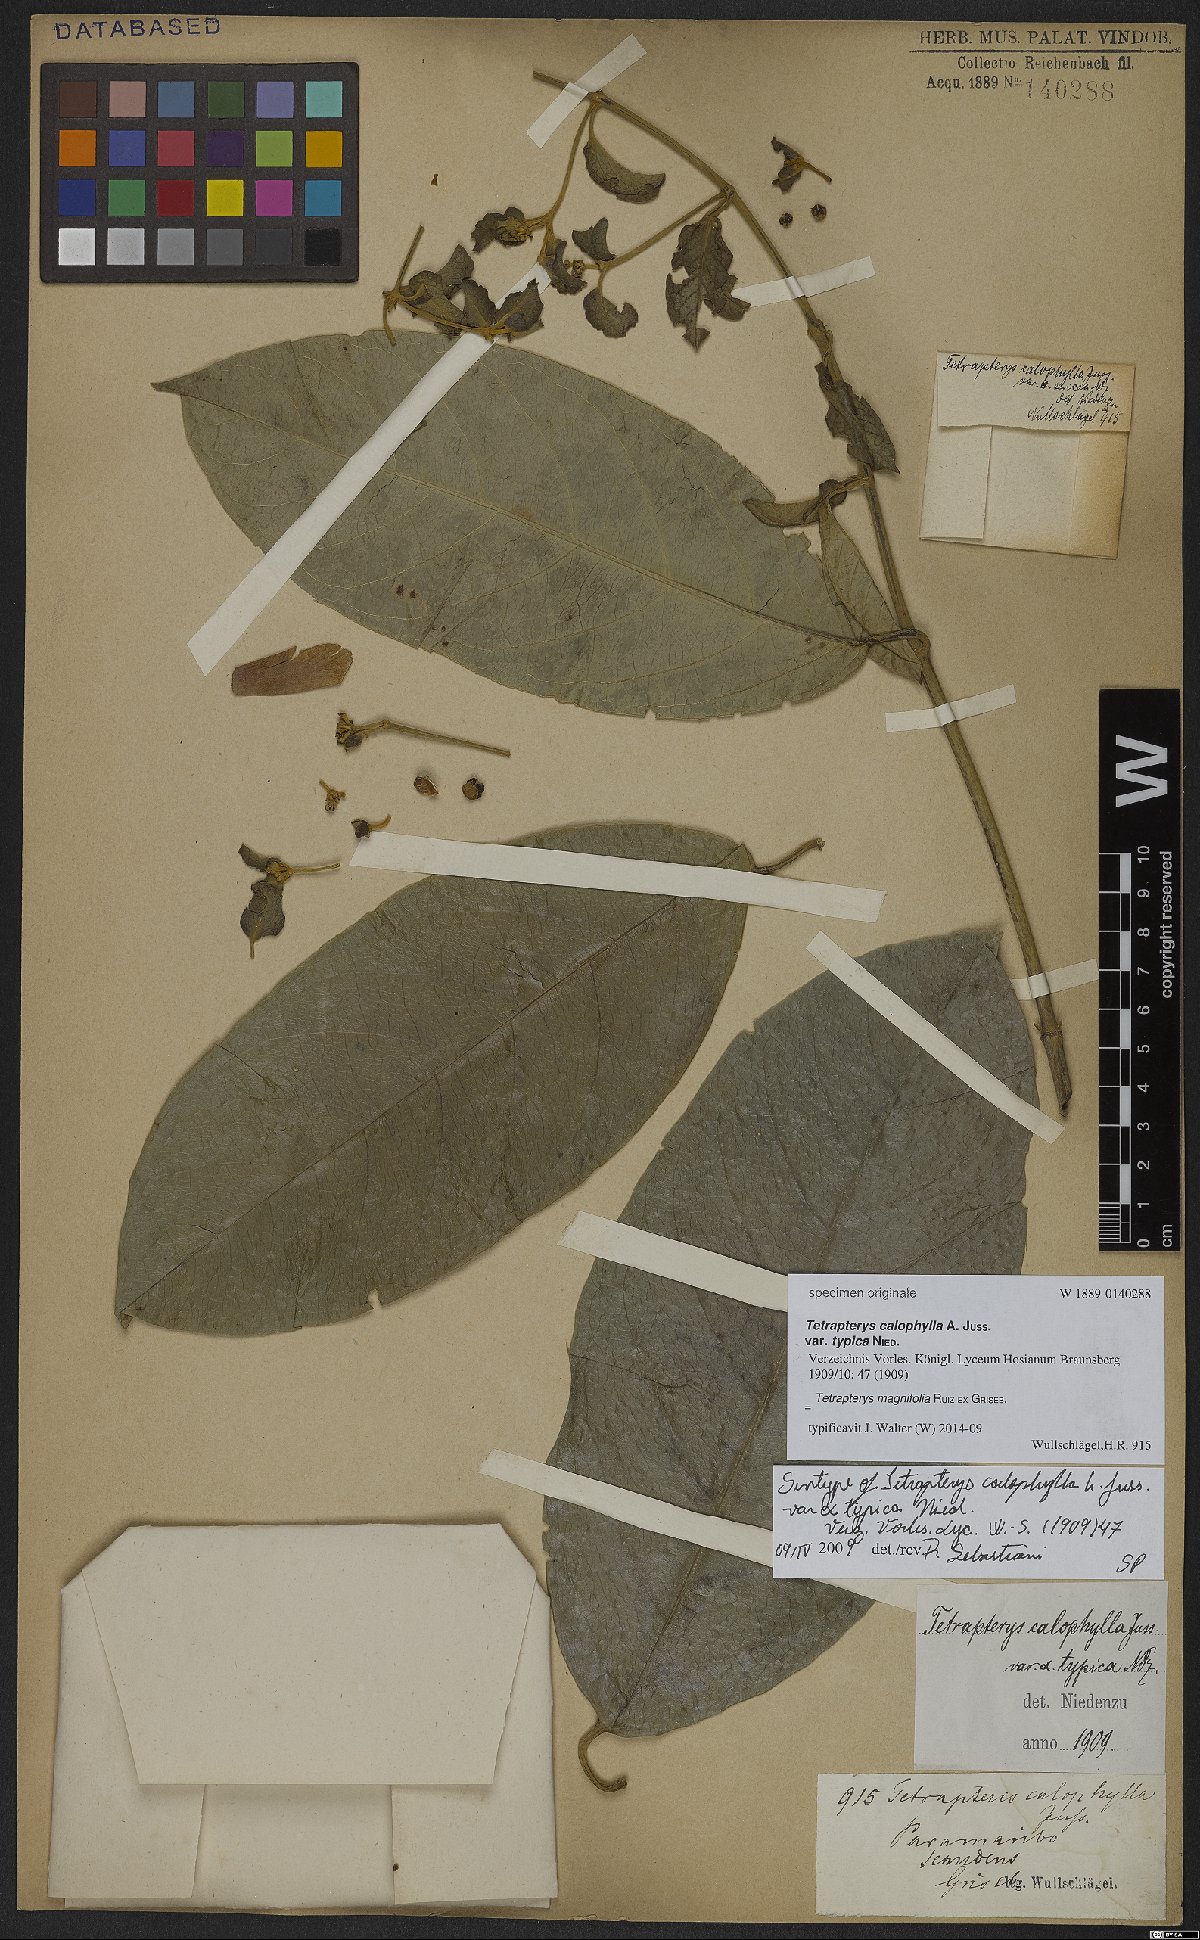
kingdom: Plantae
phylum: Tracheophyta
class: Magnoliopsida
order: Malpighiales
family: Malpighiaceae
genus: Tetrapterys
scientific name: Tetrapterys magnifolia
